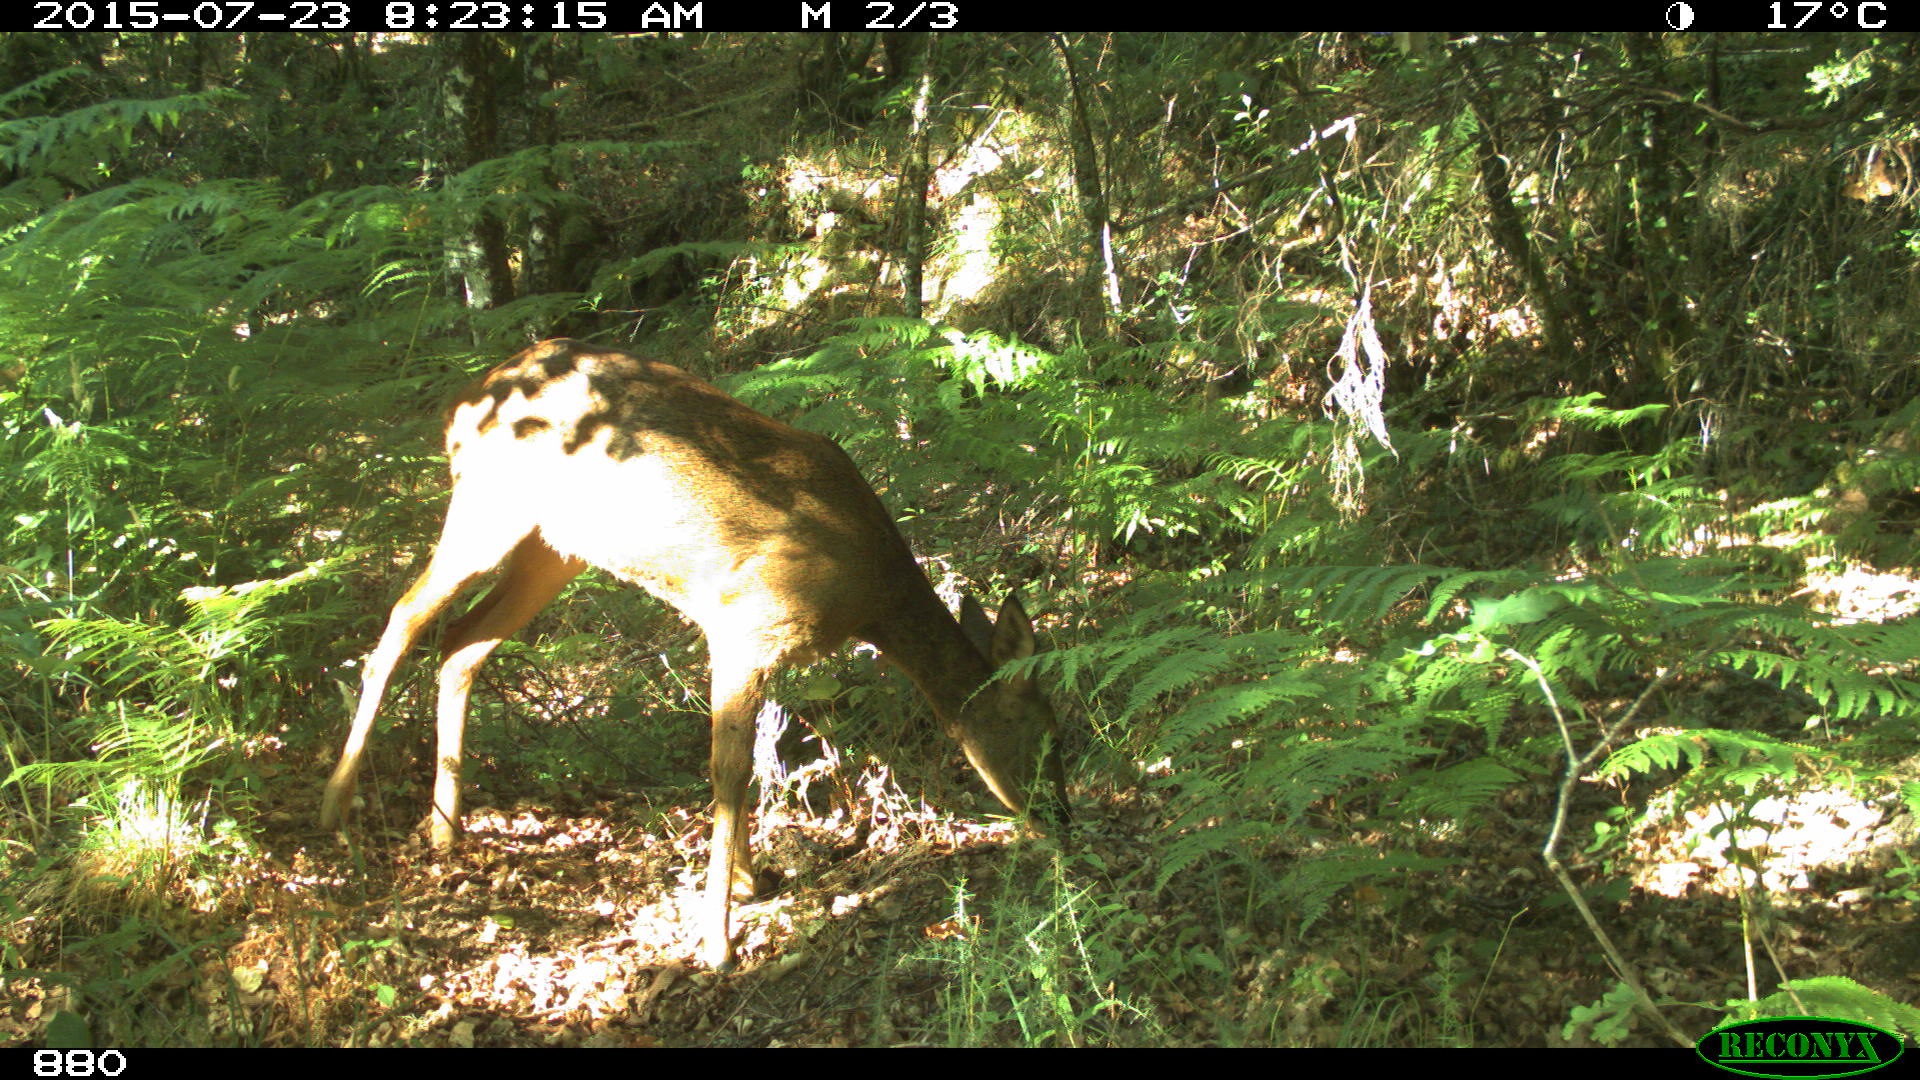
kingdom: Animalia
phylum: Chordata
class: Mammalia
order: Artiodactyla
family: Cervidae
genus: Capreolus
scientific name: Capreolus capreolus
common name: Western roe deer
